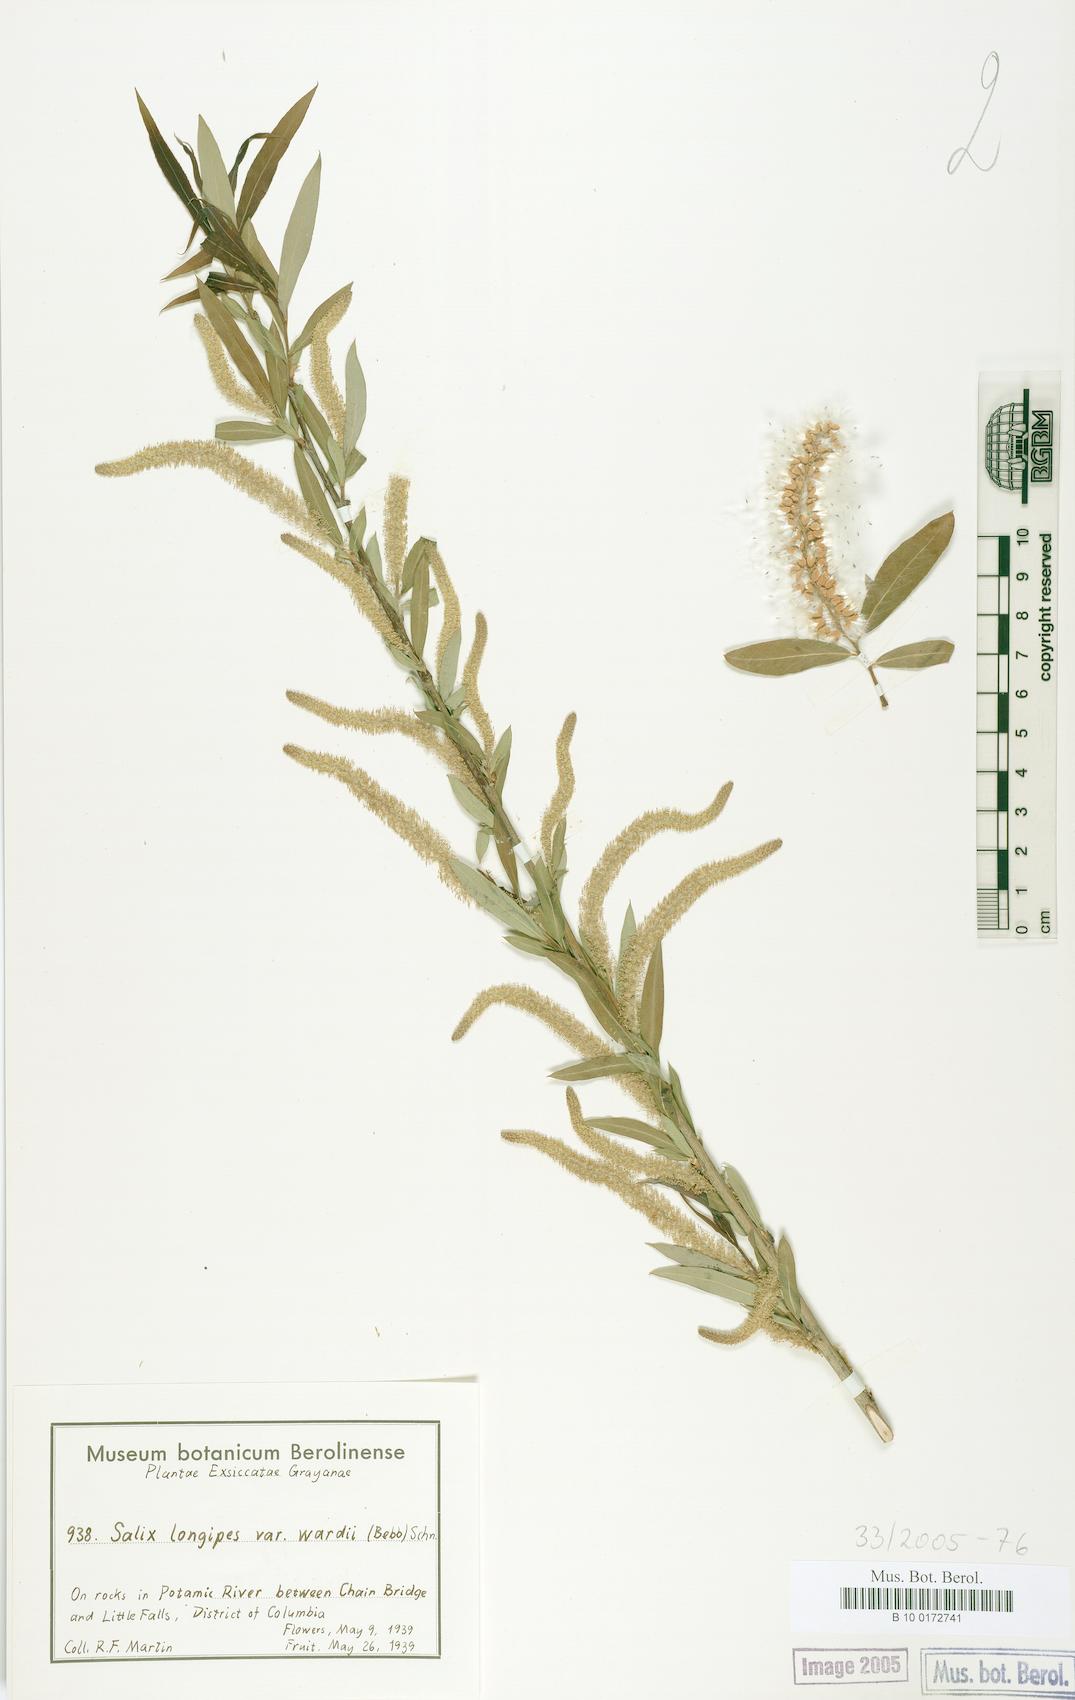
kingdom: Plantae
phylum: Tracheophyta
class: Magnoliopsida
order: Malpighiales
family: Salicaceae
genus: Salix
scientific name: Salix caroliniana
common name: Carolina willow
